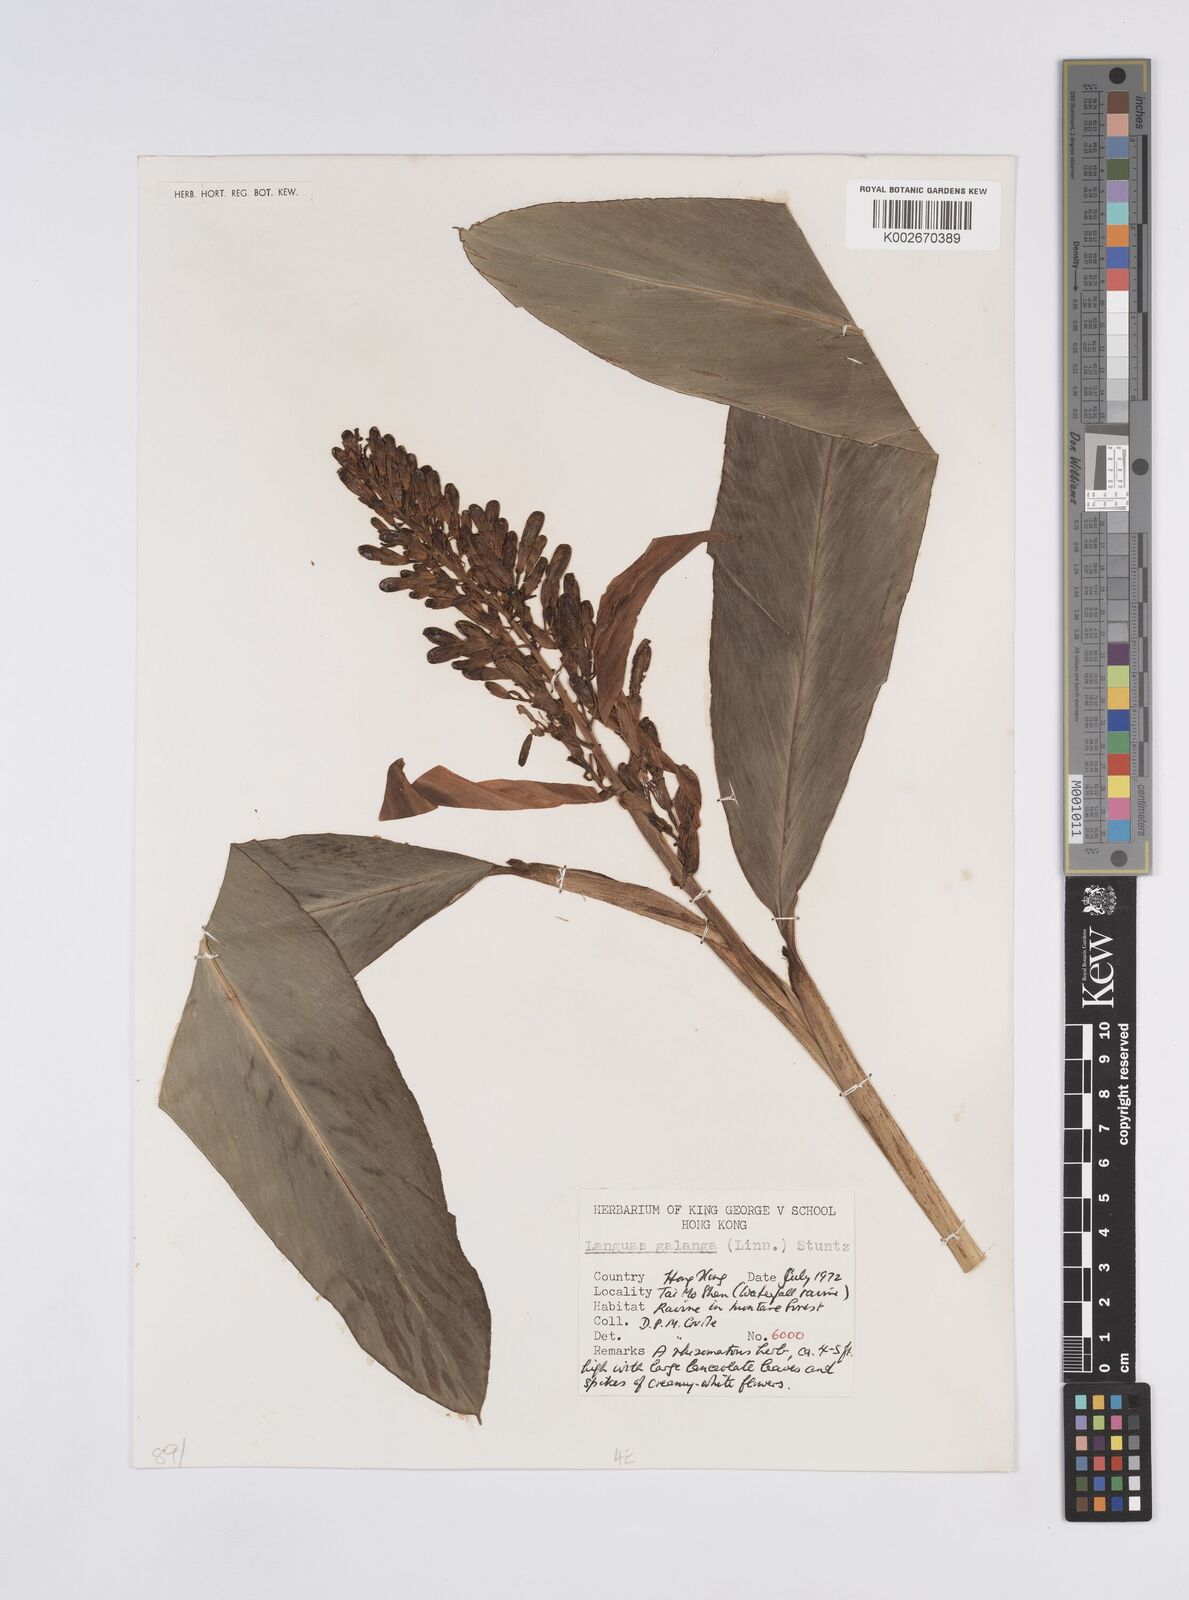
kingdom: Plantae
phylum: Tracheophyta
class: Liliopsida
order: Zingiberales
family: Zingiberaceae
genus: Alpinia
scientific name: Alpinia galanga
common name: Siamese-ginger
